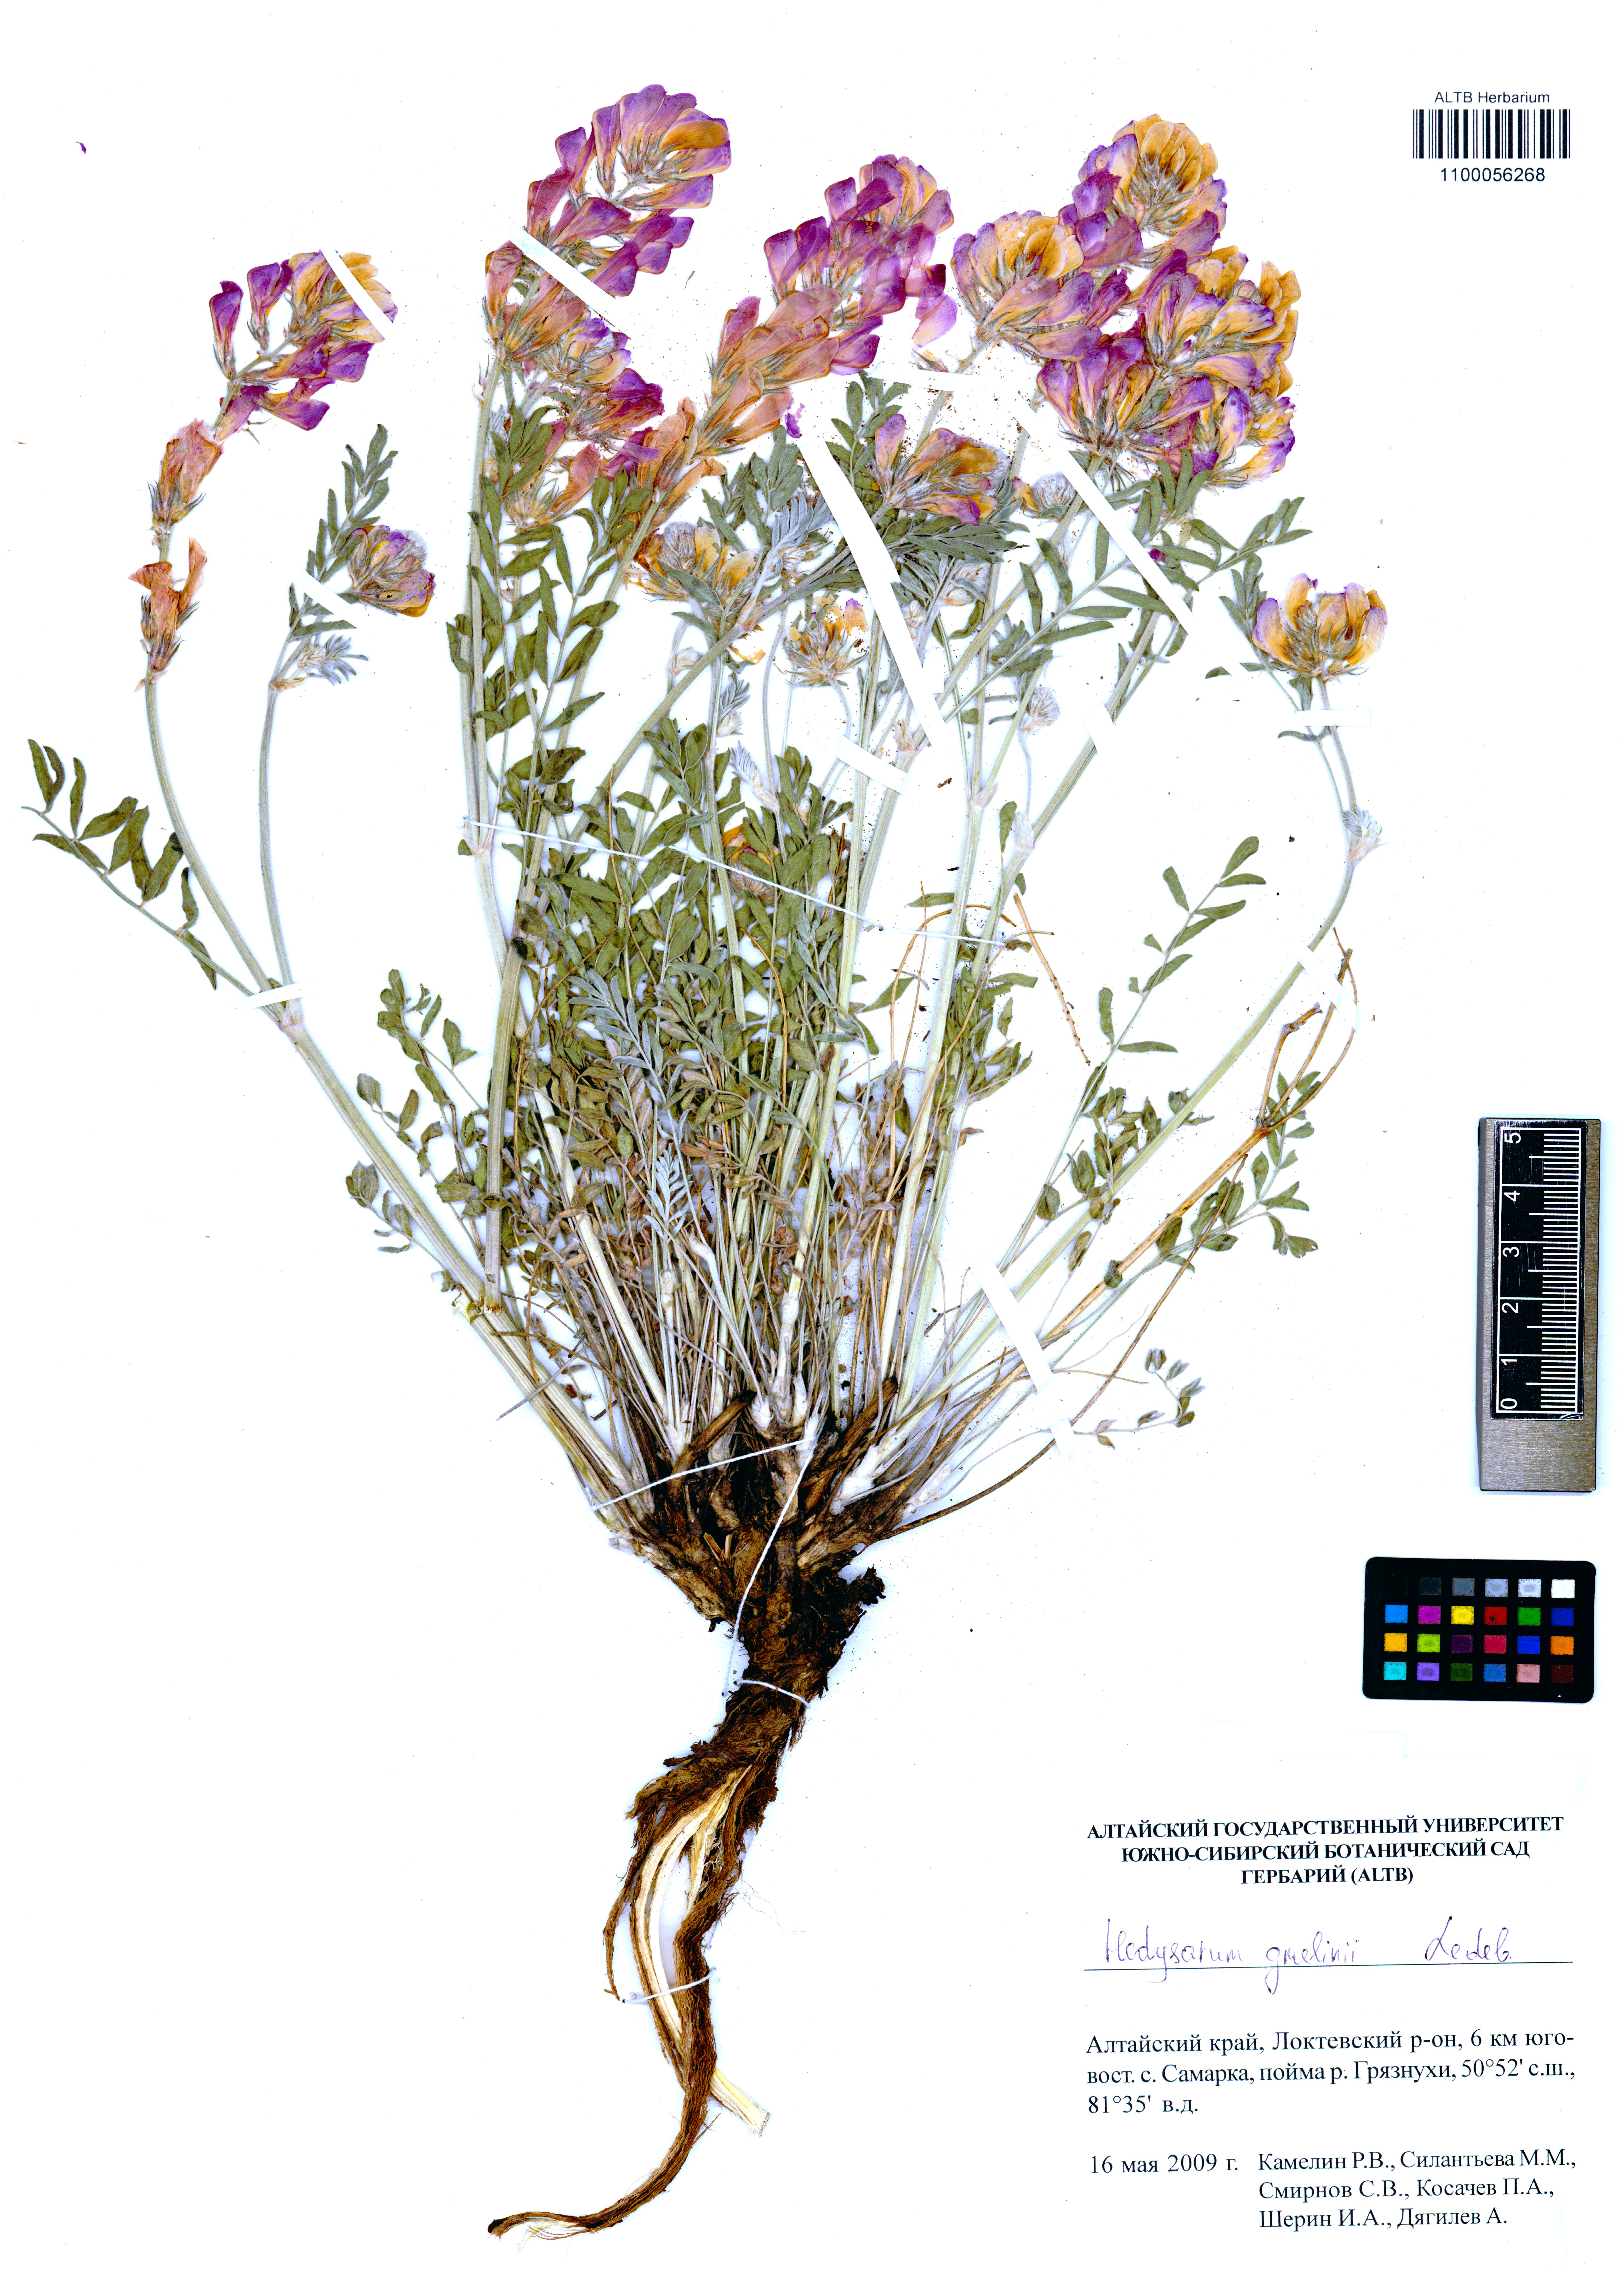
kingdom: Plantae
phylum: Tracheophyta
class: Magnoliopsida
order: Fabales
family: Fabaceae
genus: Hedysarum
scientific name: Hedysarum gmelinii
